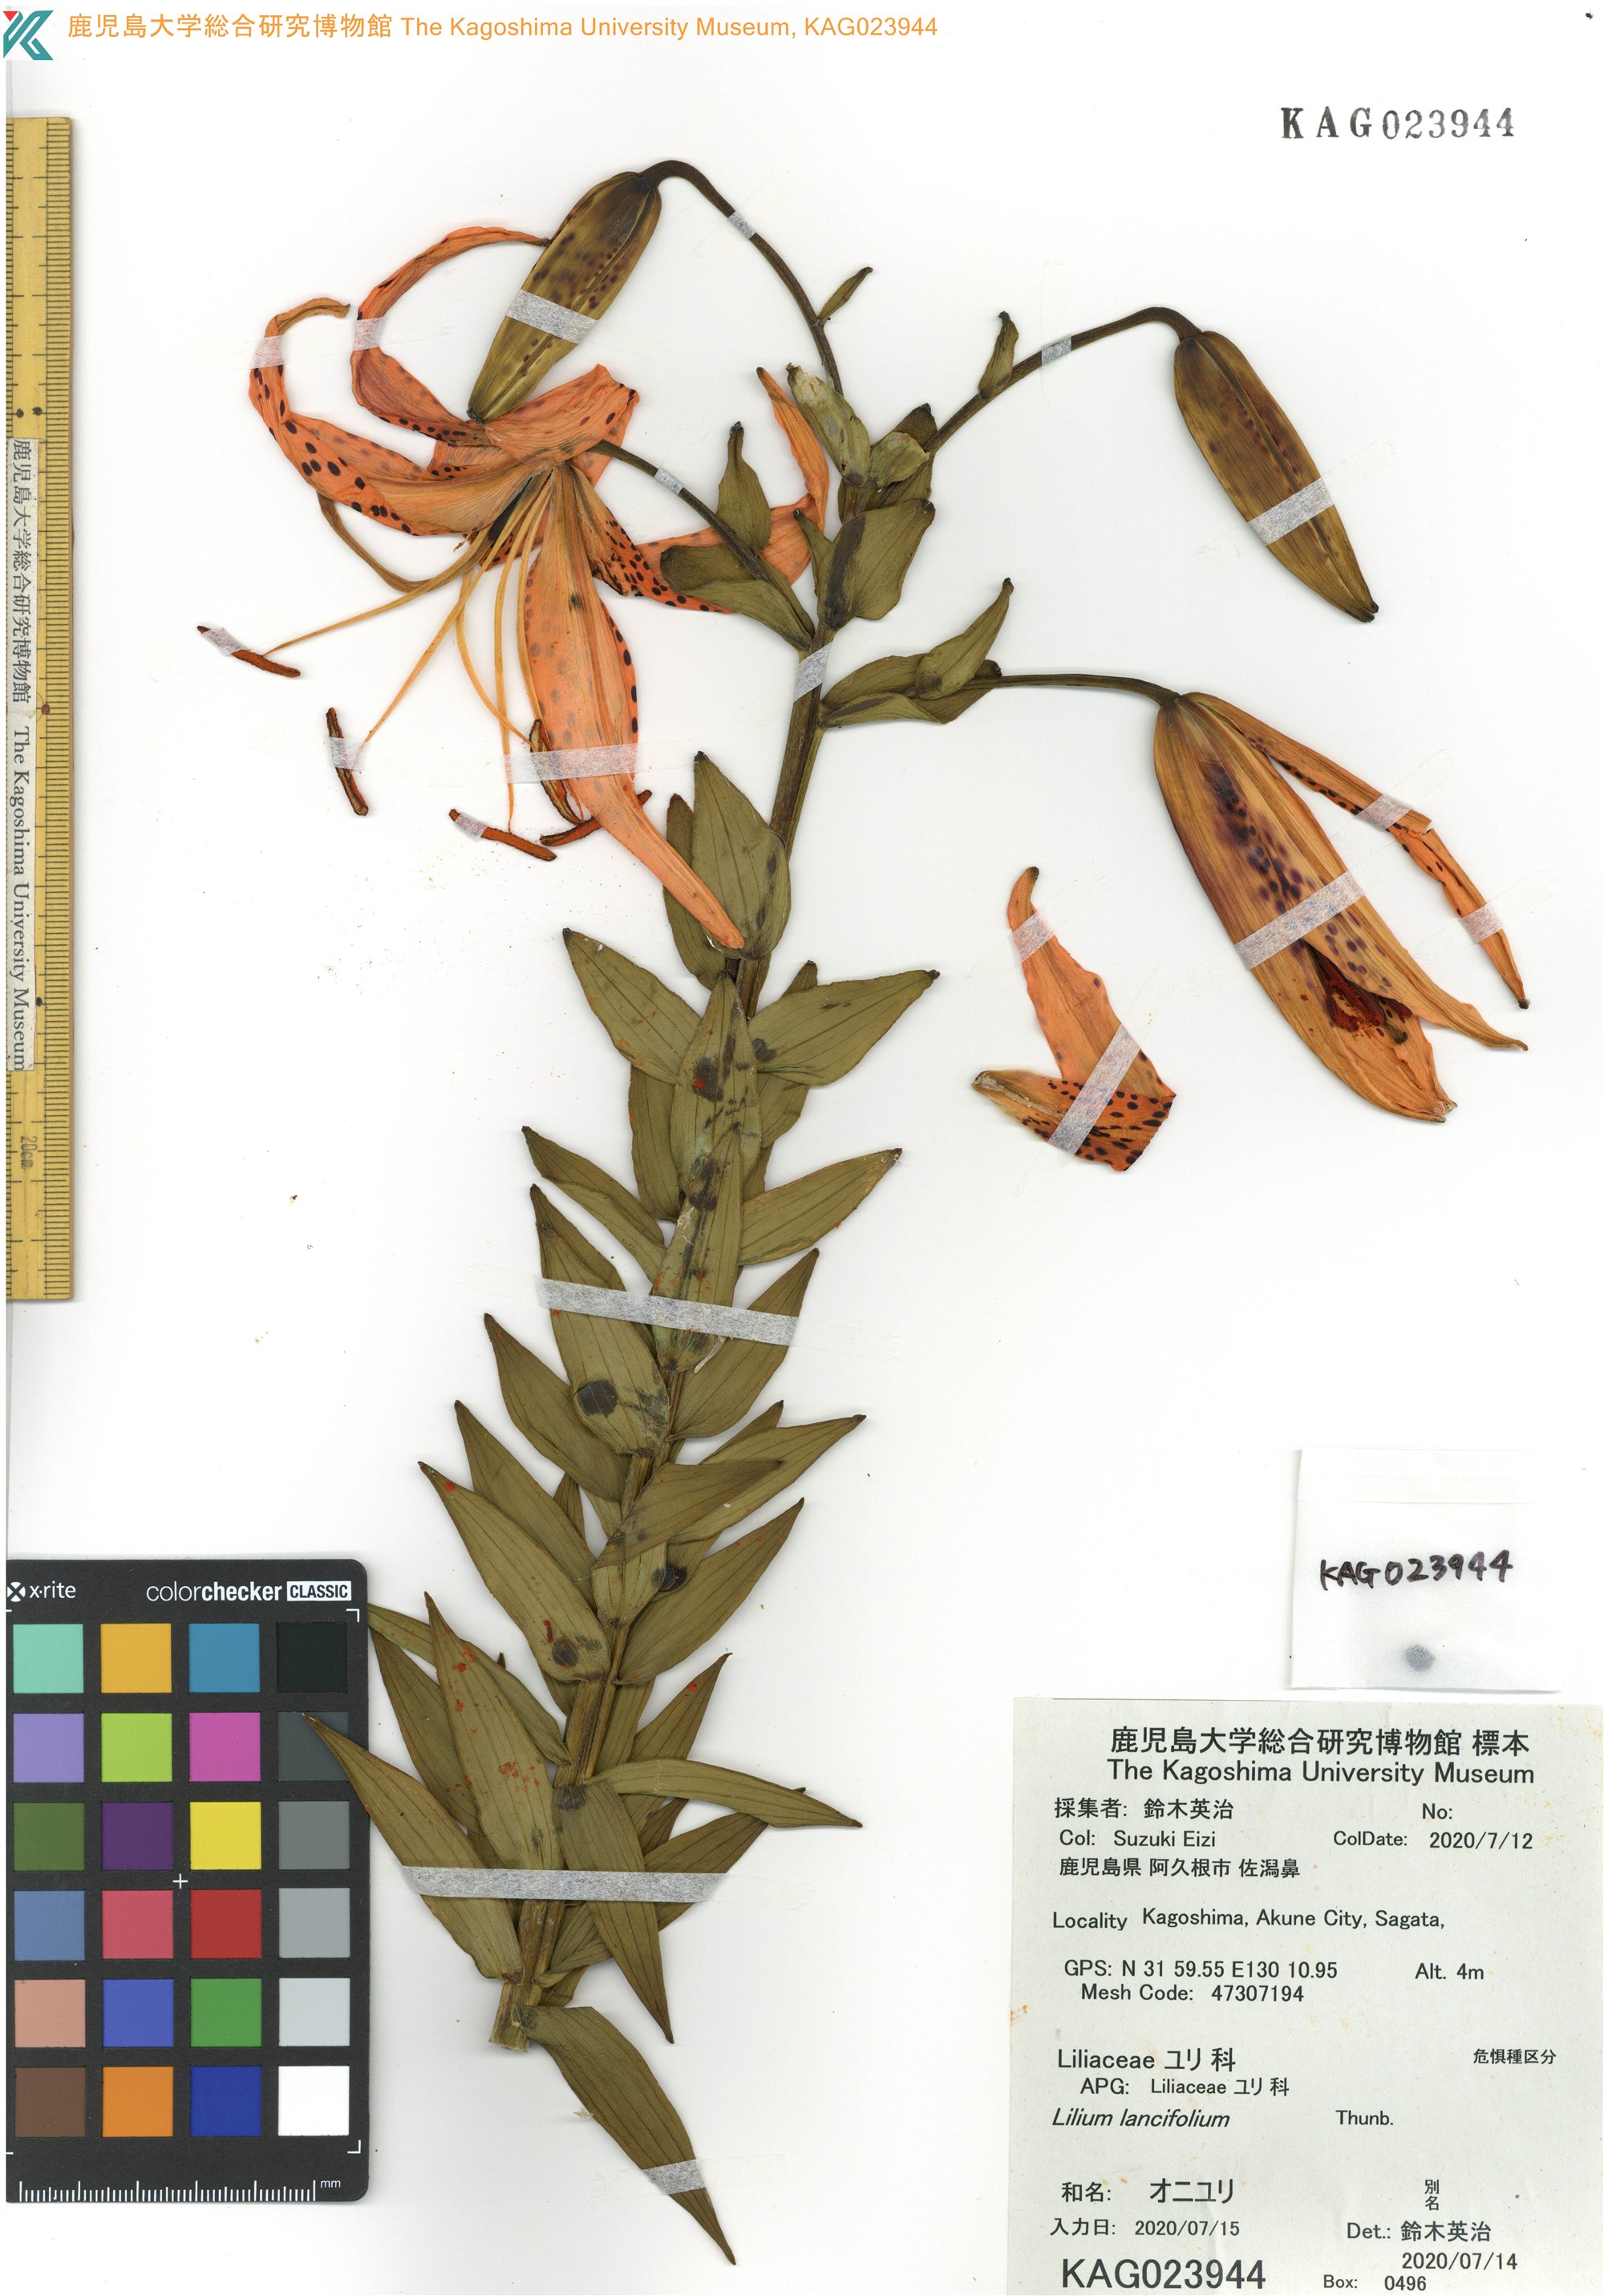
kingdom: Plantae
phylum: Tracheophyta
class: Liliopsida
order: Liliales
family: Liliaceae
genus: Lilium
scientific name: Lilium lancifolium
